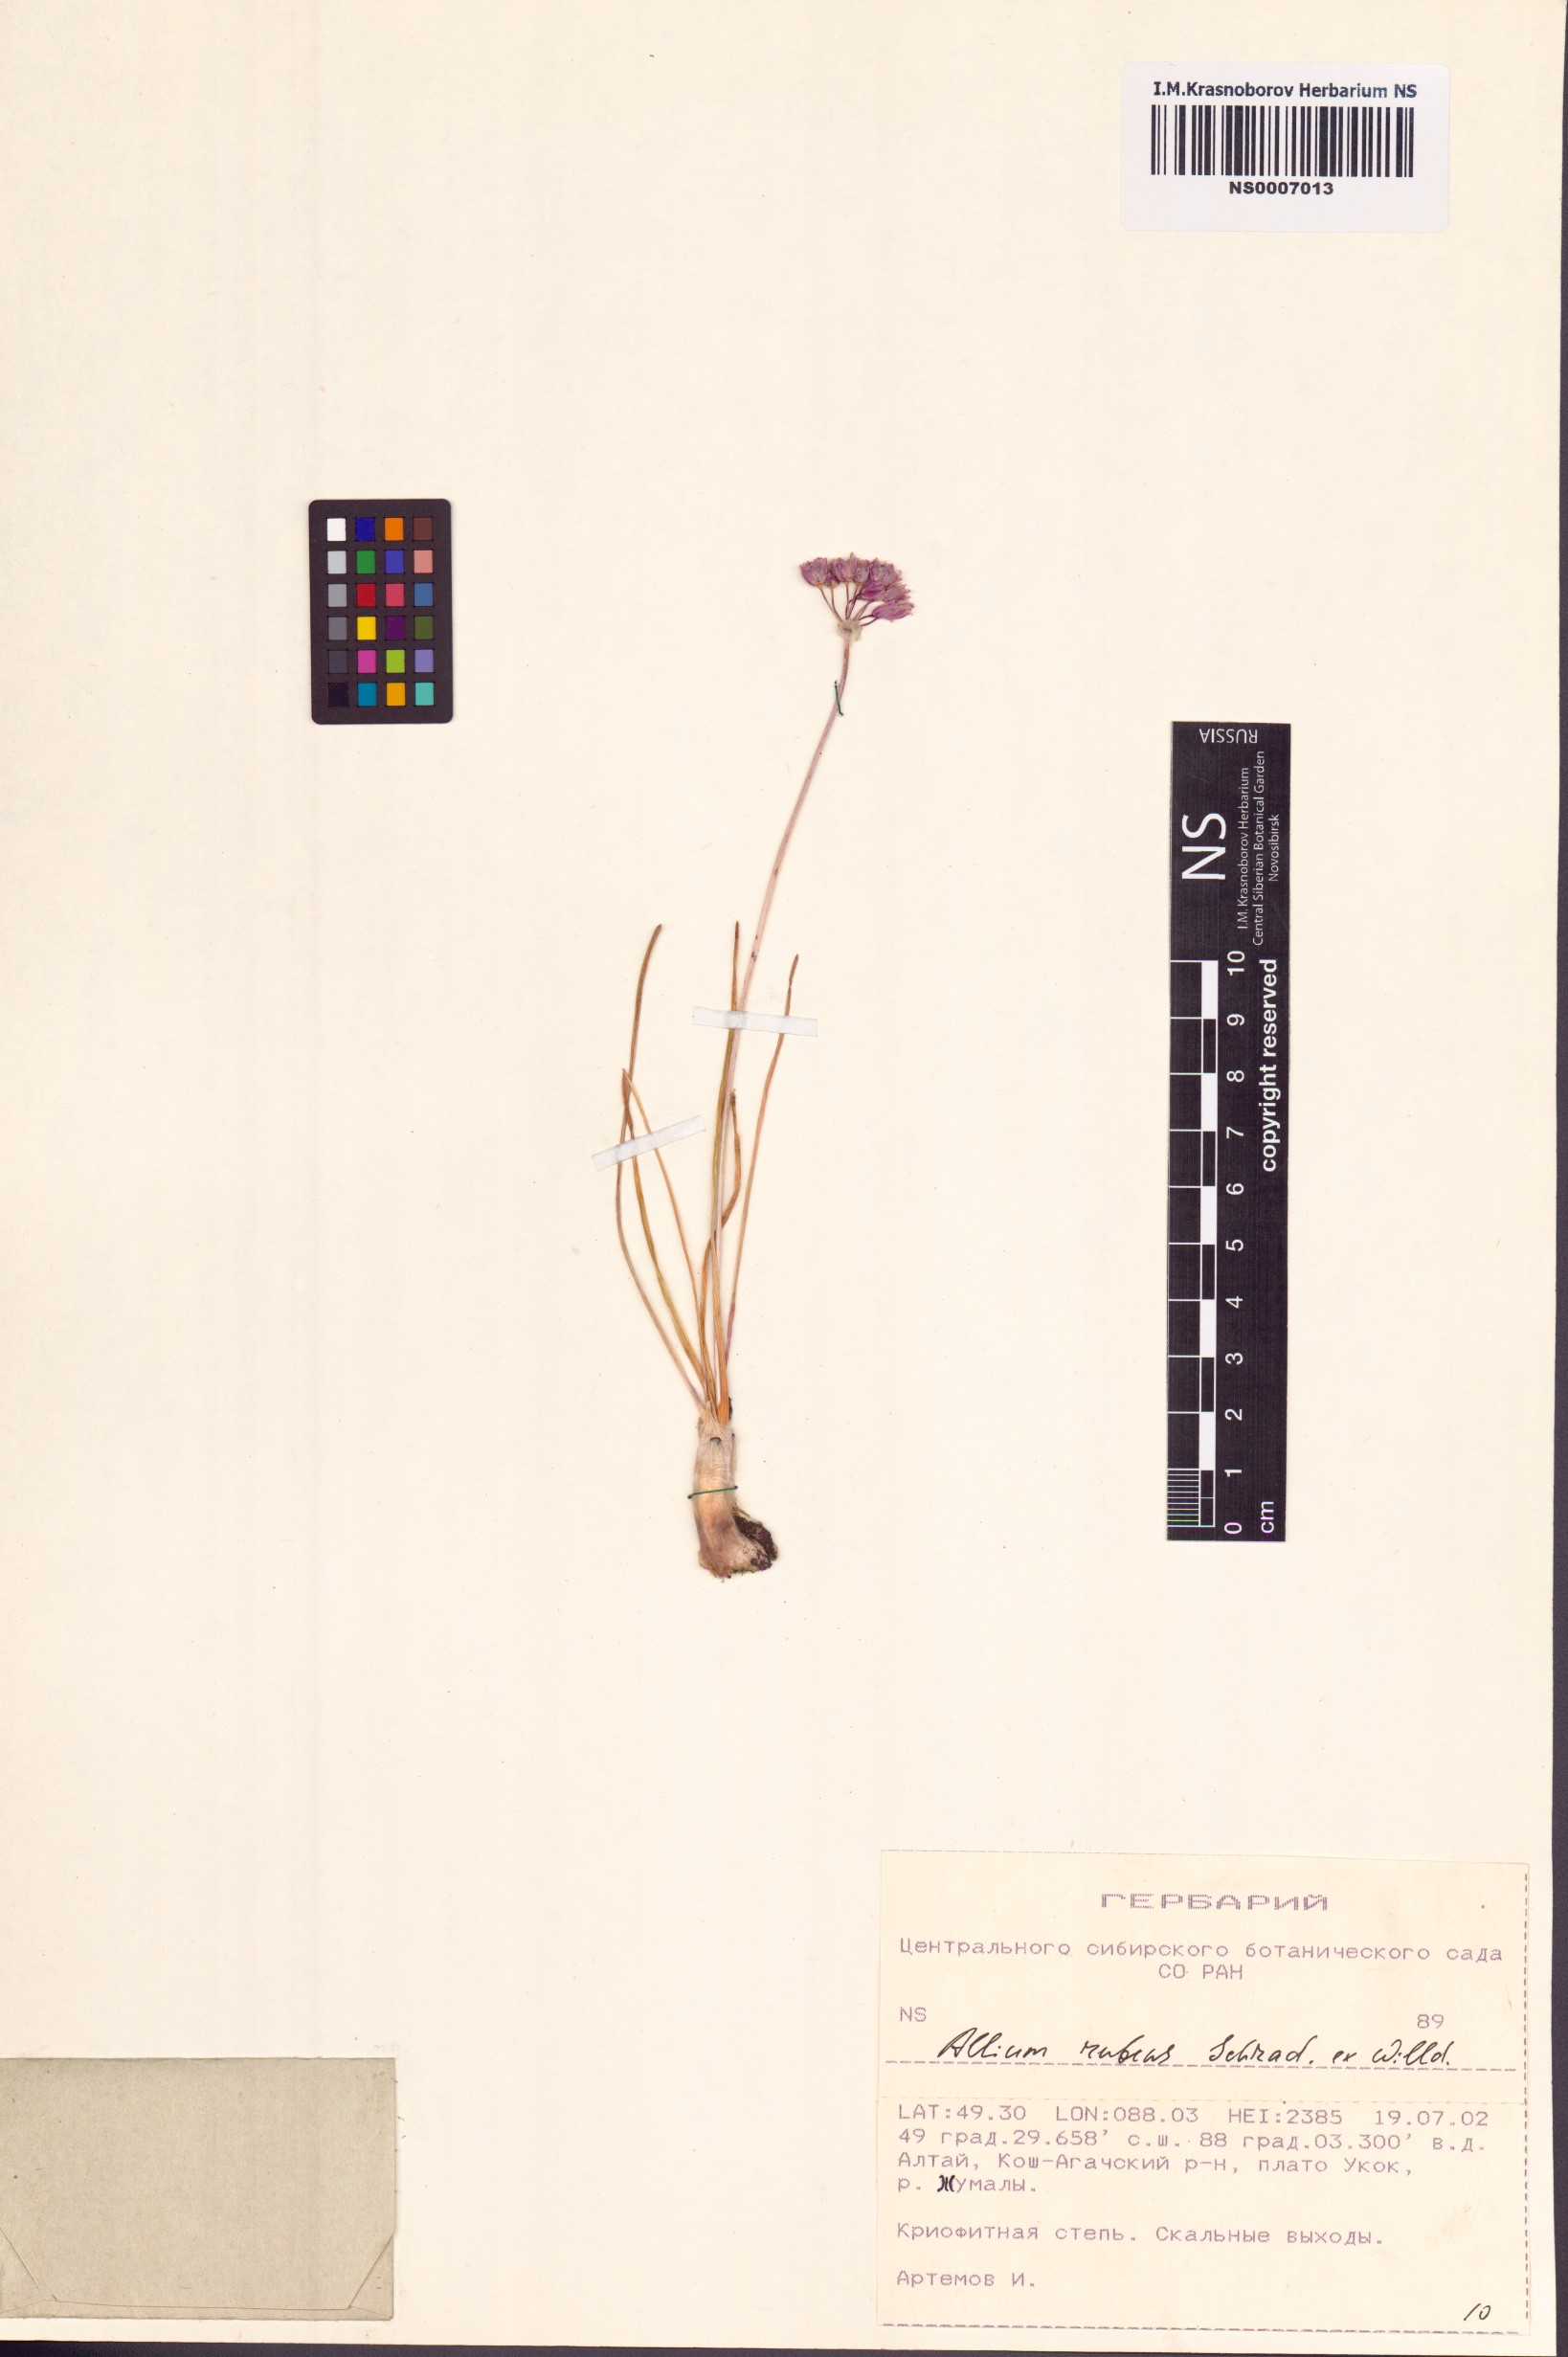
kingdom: Plantae
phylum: Tracheophyta
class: Liliopsida
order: Asparagales
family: Amaryllidaceae
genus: Allium
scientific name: Allium rubens
